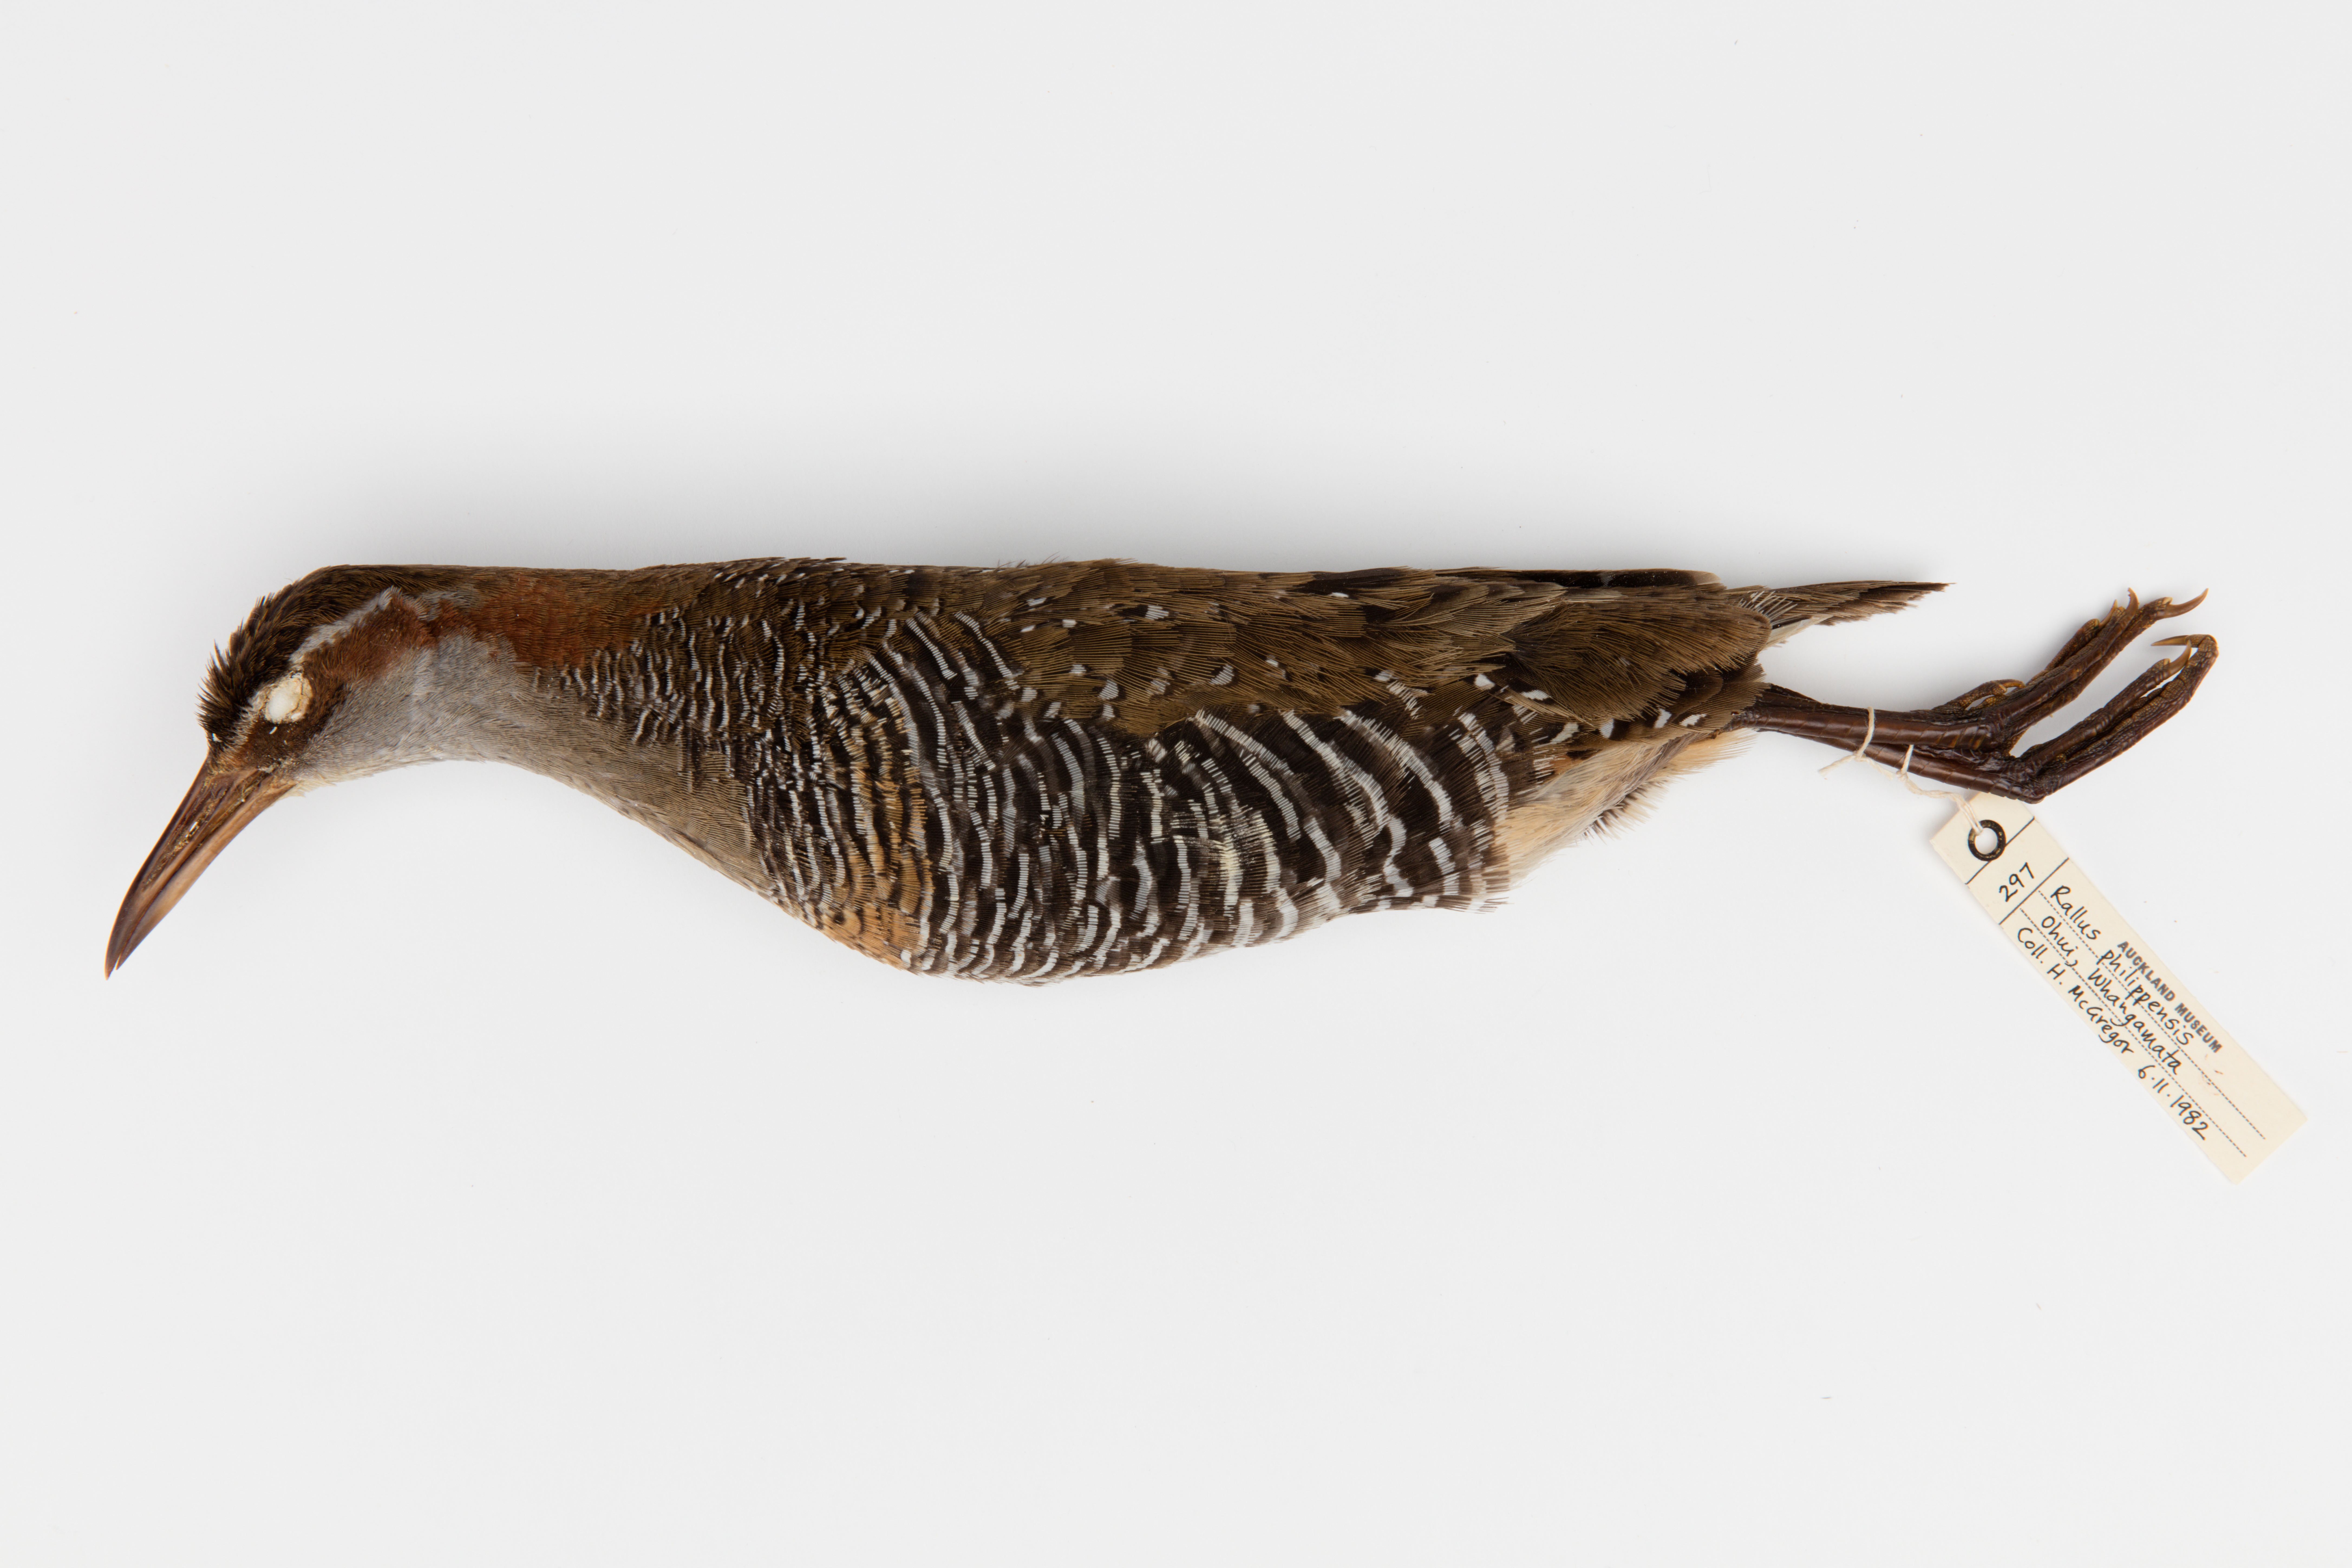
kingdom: Animalia
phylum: Chordata
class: Aves
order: Gruiformes
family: Rallidae
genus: Gallirallus
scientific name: Gallirallus philippensis
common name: Buff-banded rail
